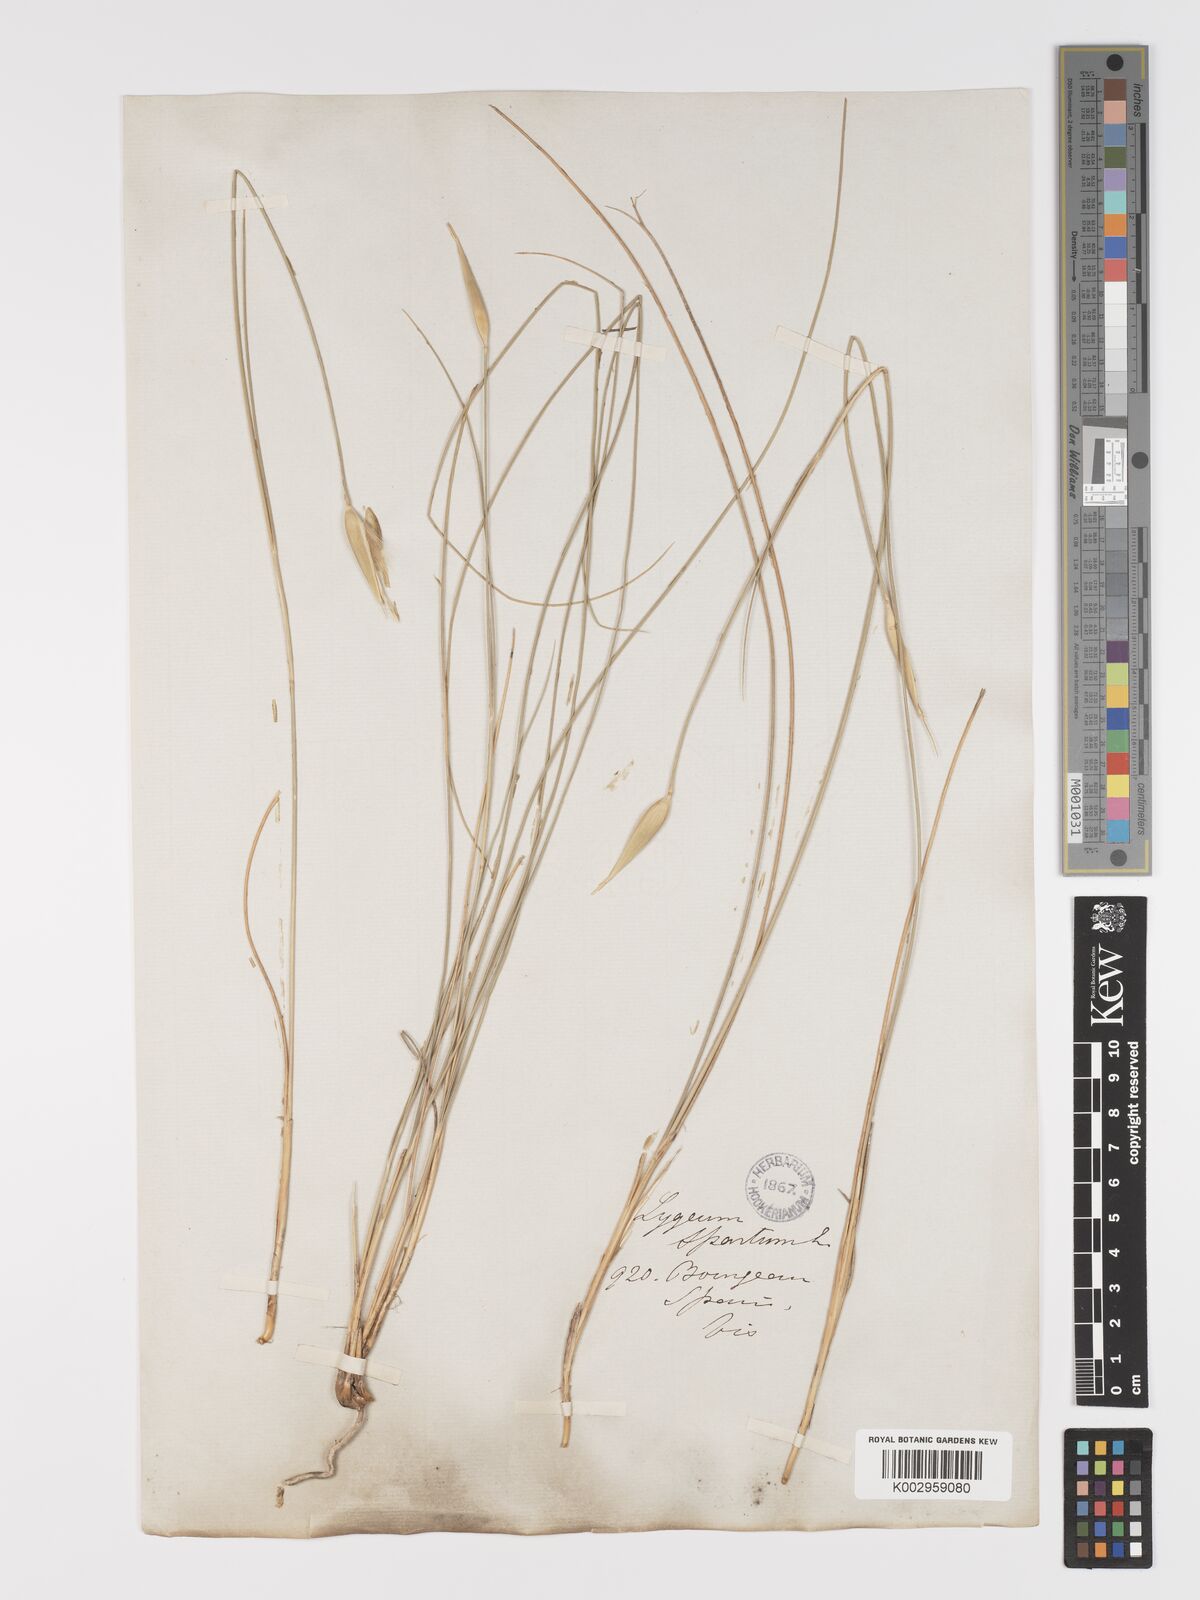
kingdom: Plantae
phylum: Tracheophyta
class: Liliopsida
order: Poales
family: Poaceae
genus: Lygeum
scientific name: Lygeum spartum
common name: Albardine
